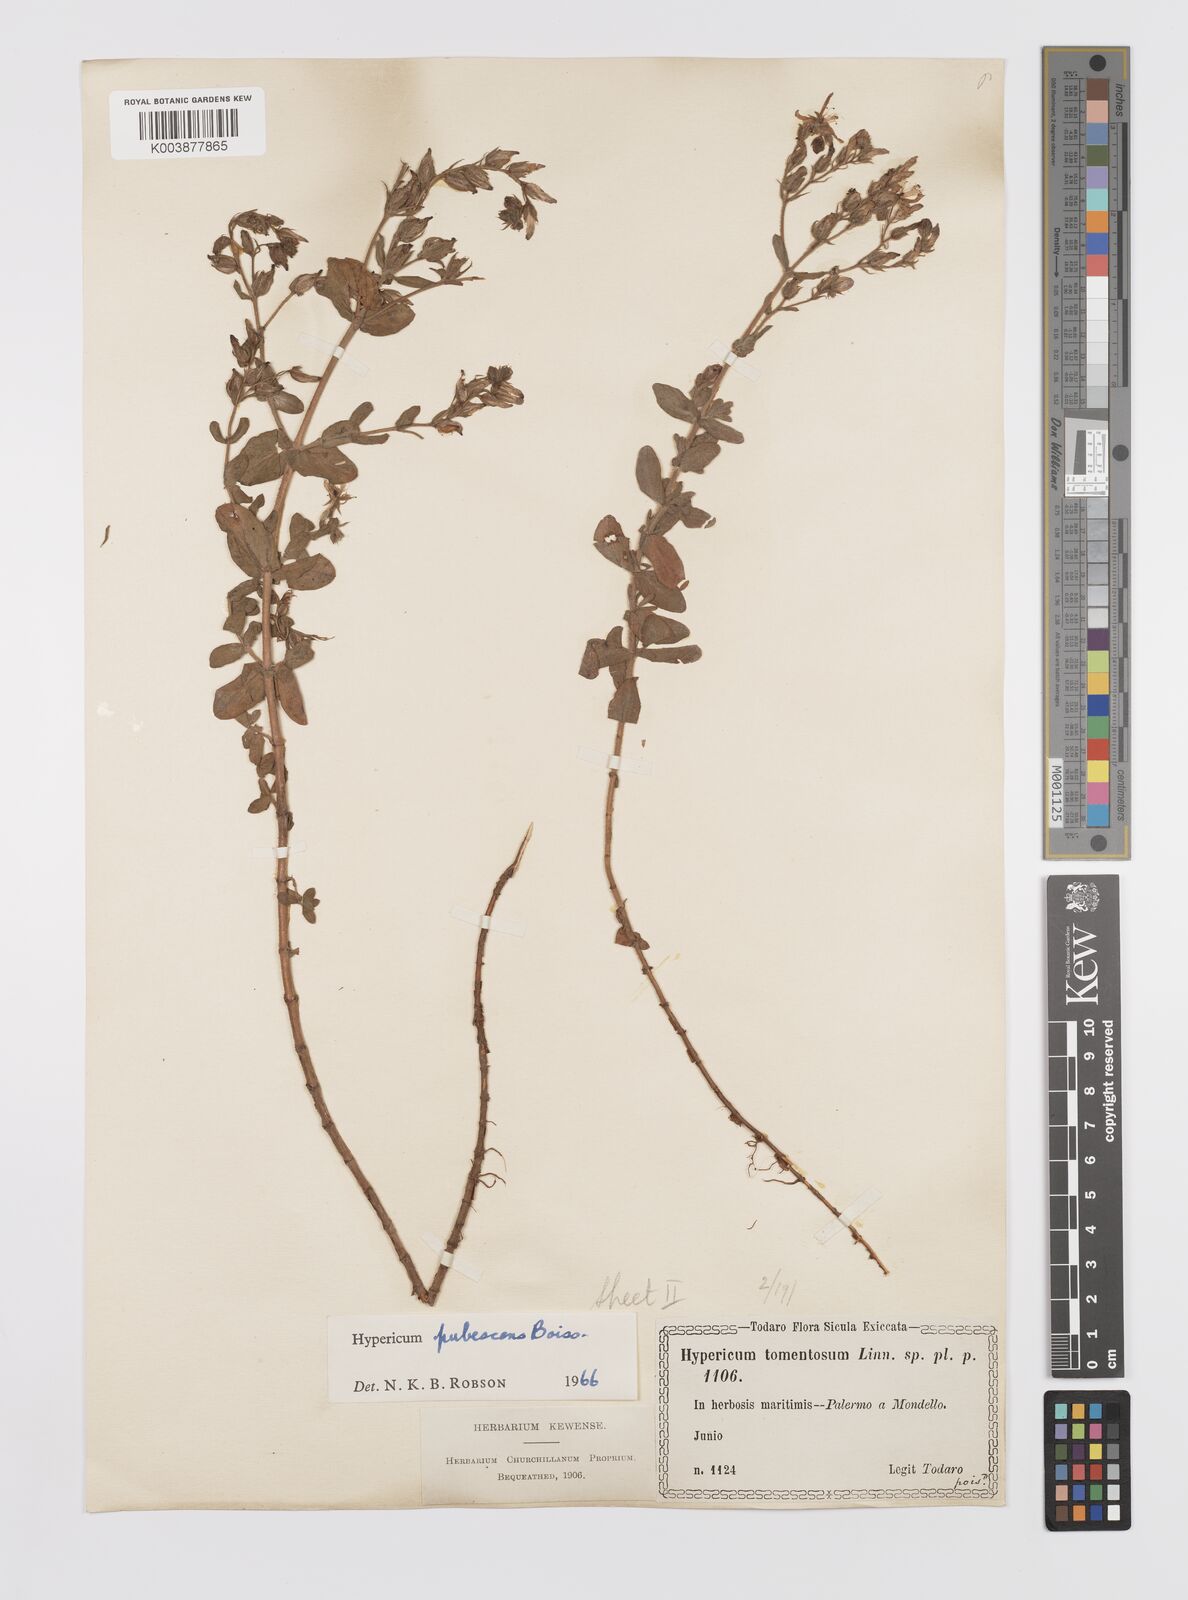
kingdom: Plantae
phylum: Tracheophyta
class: Magnoliopsida
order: Malpighiales
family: Hypericaceae
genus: Hypericum
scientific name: Hypericum pubescens
